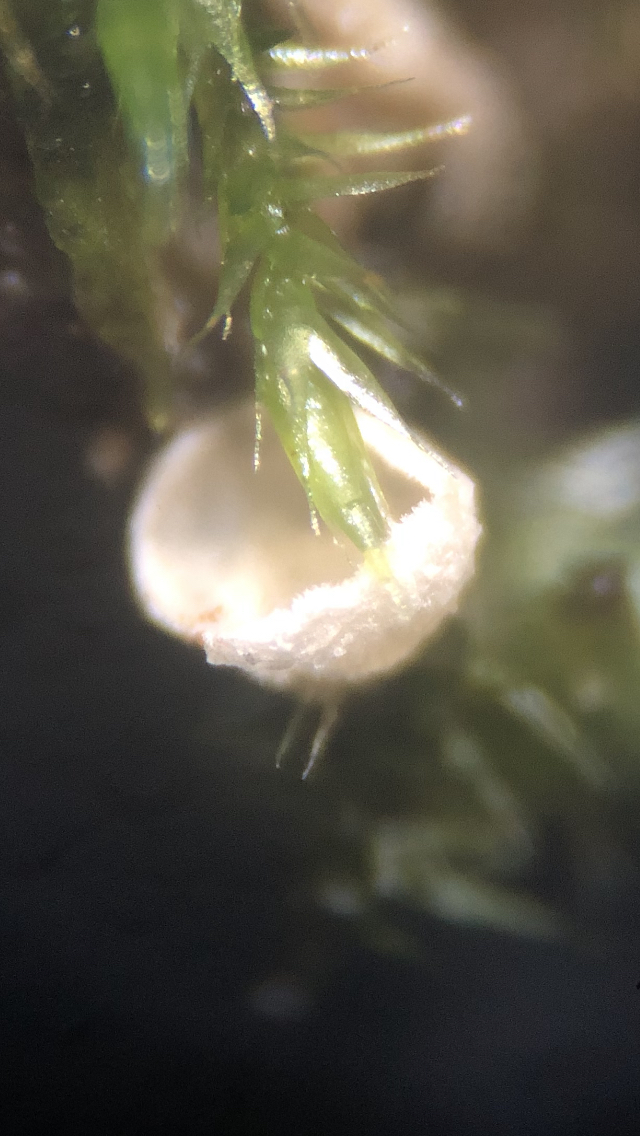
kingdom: Fungi
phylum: Basidiomycota
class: Agaricomycetes
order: Agaricales
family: Chromocyphellaceae
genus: Chromocyphella
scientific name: Chromocyphella muscicola
